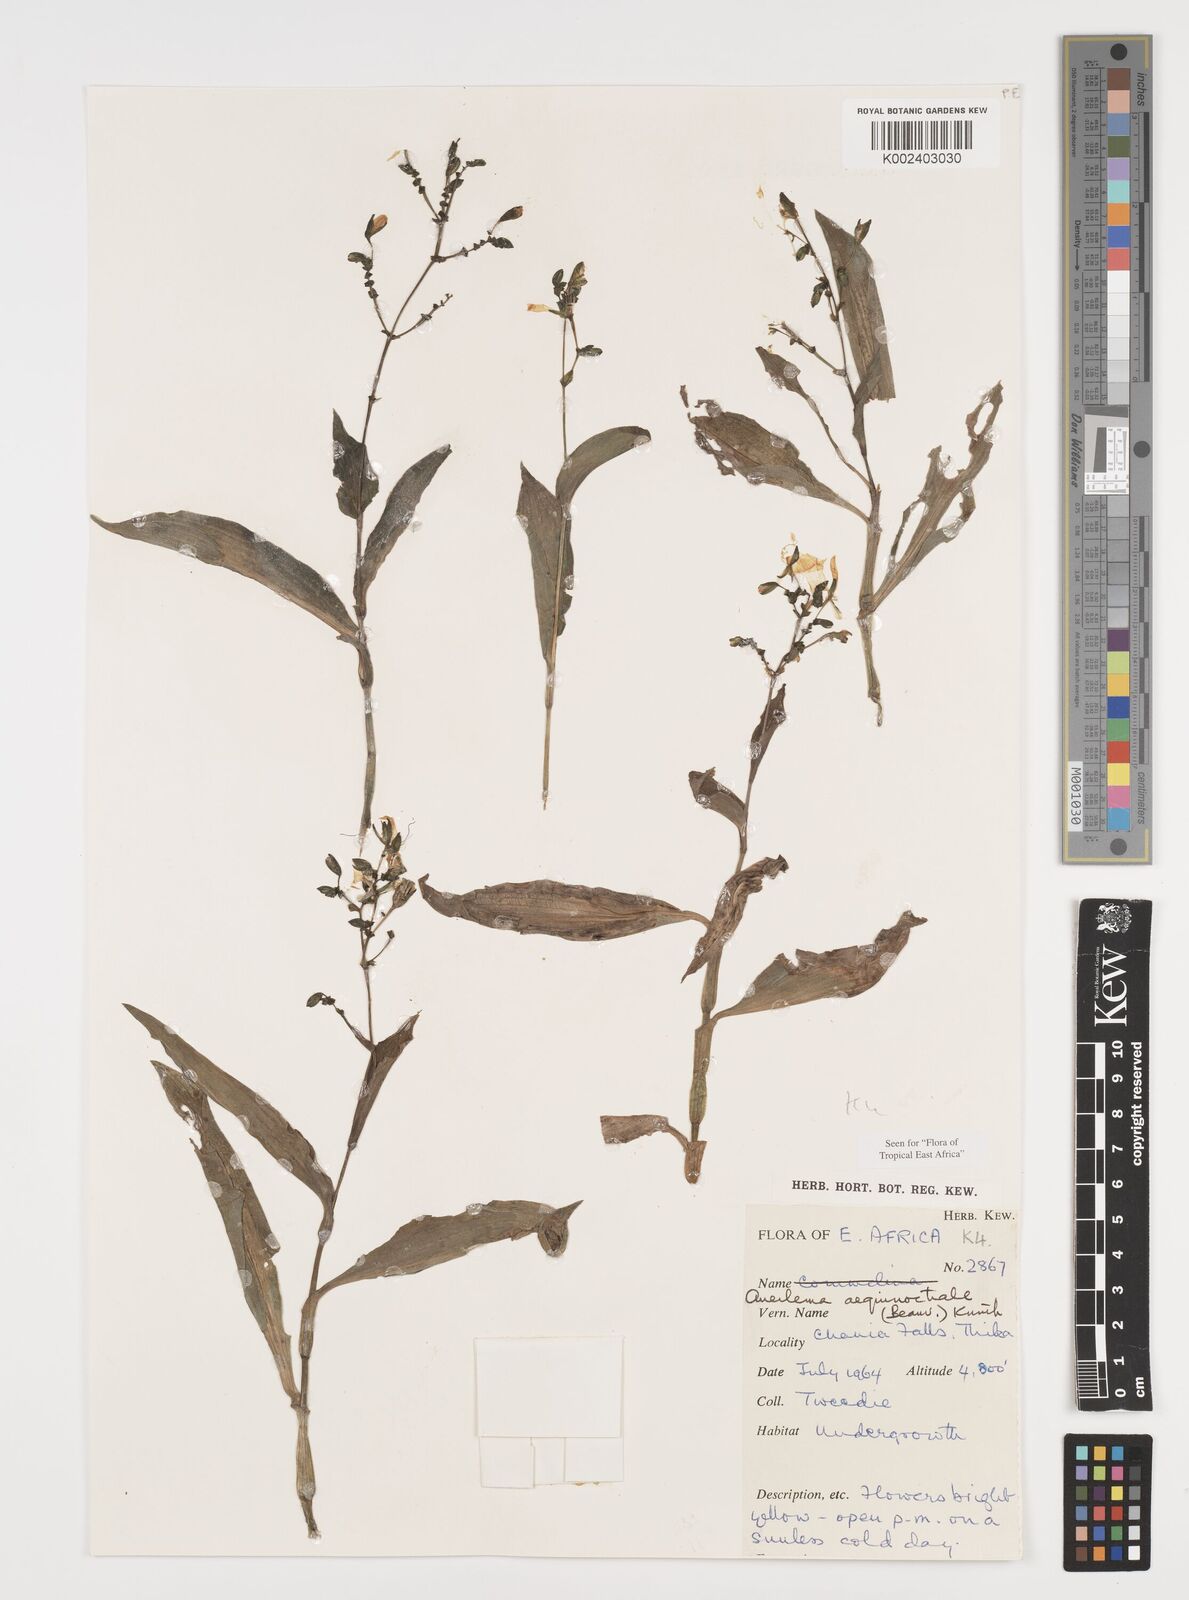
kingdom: Plantae
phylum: Tracheophyta
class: Liliopsida
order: Commelinales
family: Commelinaceae
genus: Aneilema
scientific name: Aneilema aequinoctiale
